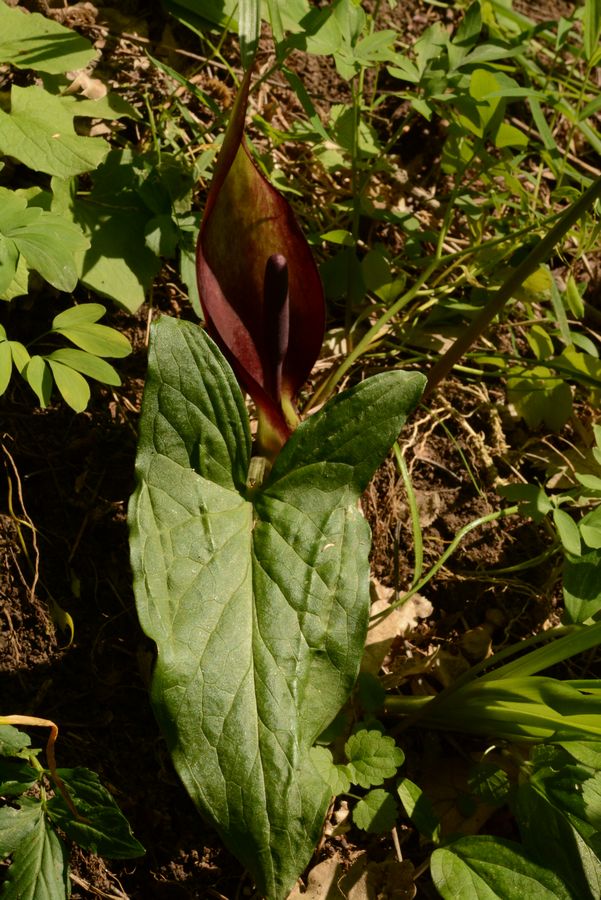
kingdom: Plantae
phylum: Tracheophyta
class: Liliopsida
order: Alismatales
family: Araceae
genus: Arum
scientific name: Arum orientale
